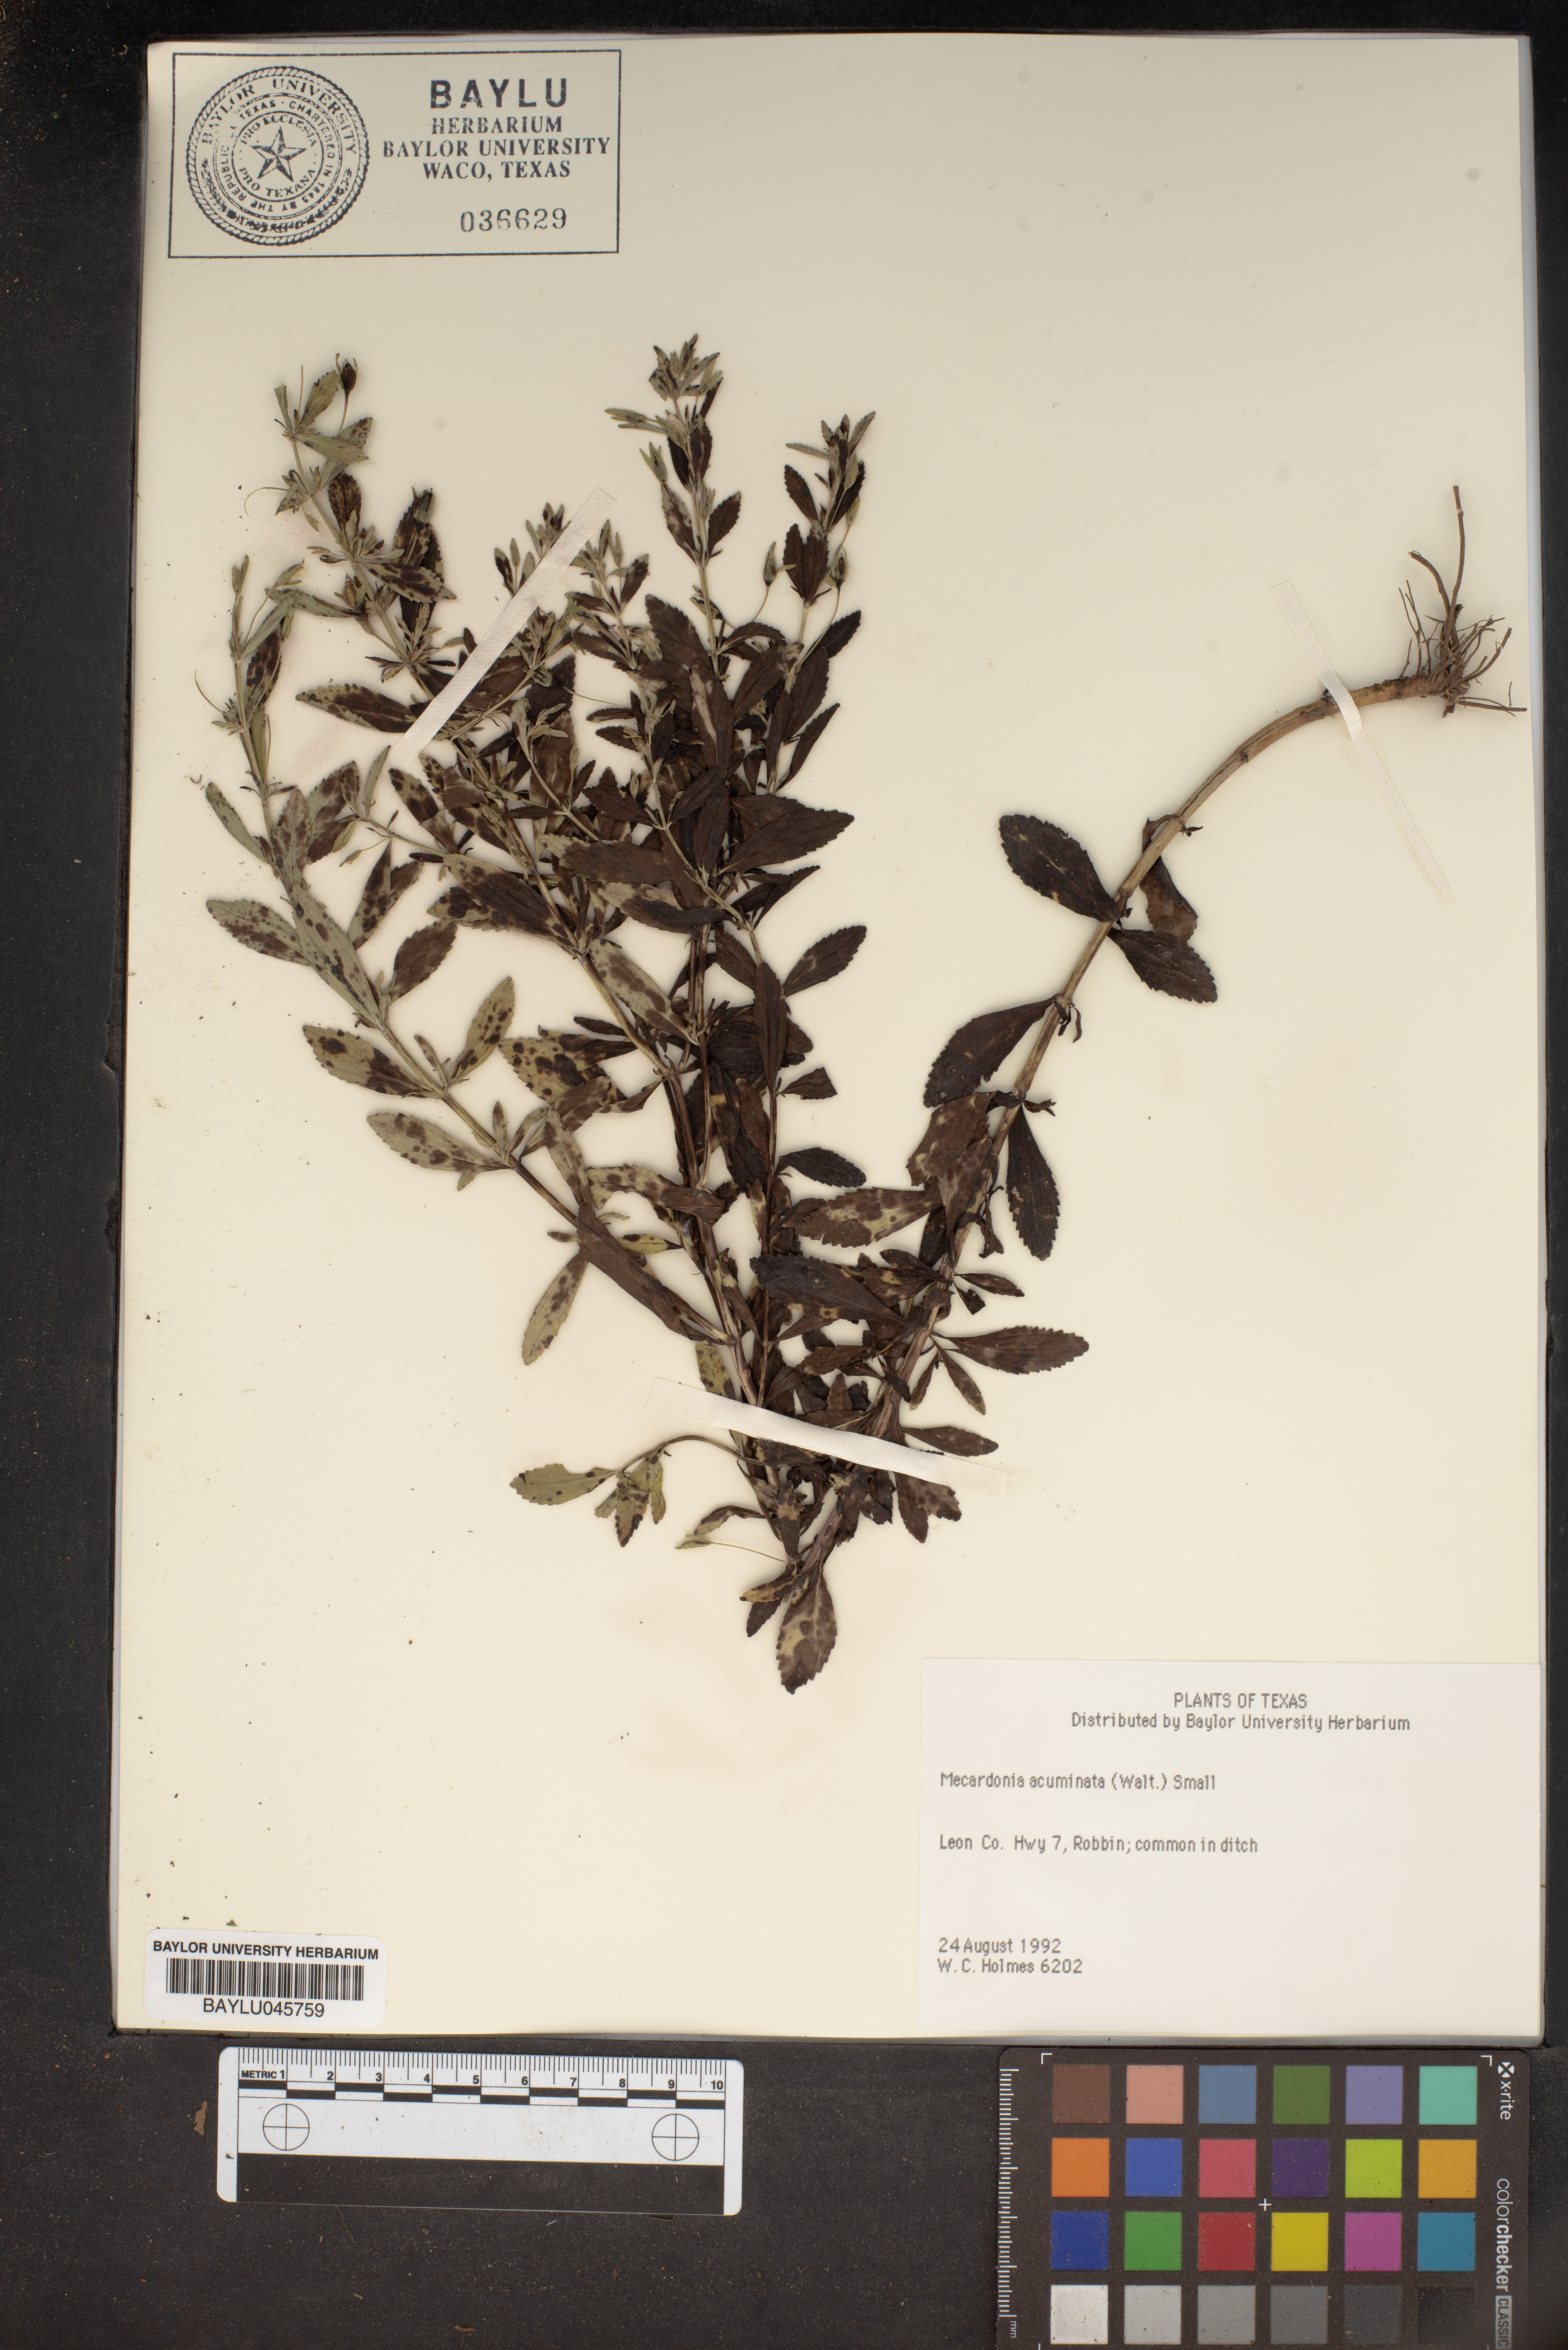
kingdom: Plantae
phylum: Tracheophyta
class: Magnoliopsida
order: Lamiales
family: Plantaginaceae
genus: Mecardonia
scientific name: Mecardonia acuminata
